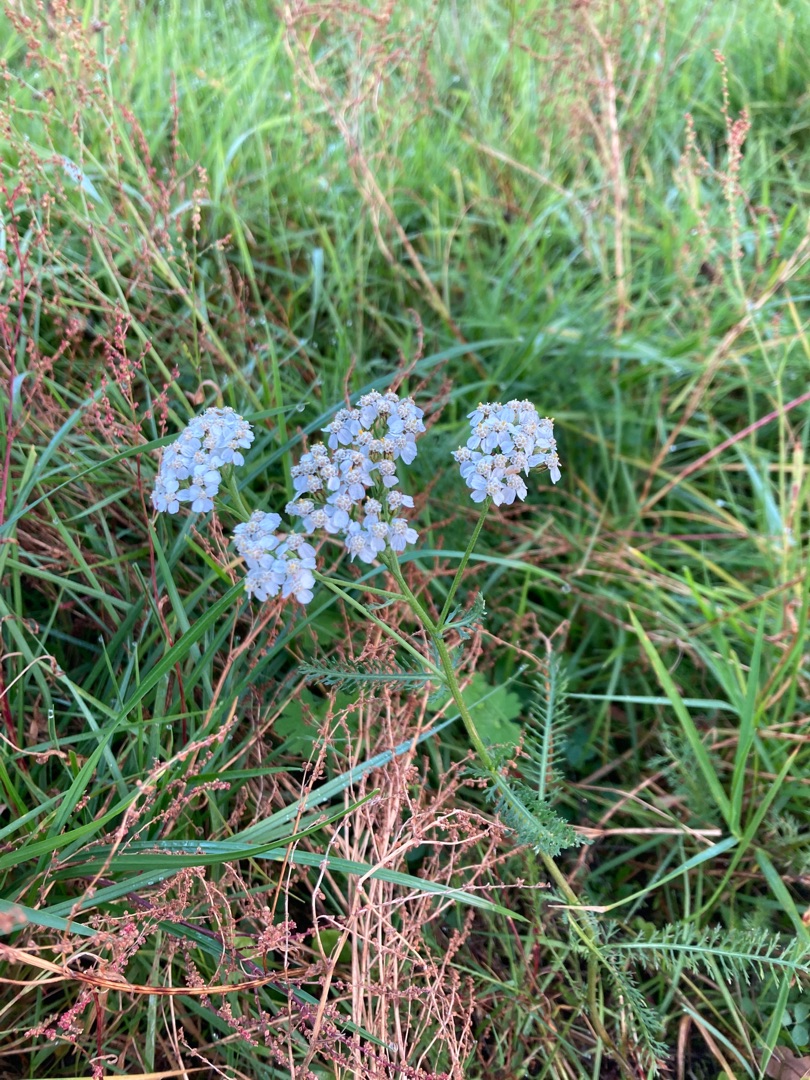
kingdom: Plantae
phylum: Tracheophyta
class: Magnoliopsida
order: Asterales
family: Asteraceae
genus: Achillea
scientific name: Achillea millefolium
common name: Almindelig røllike
